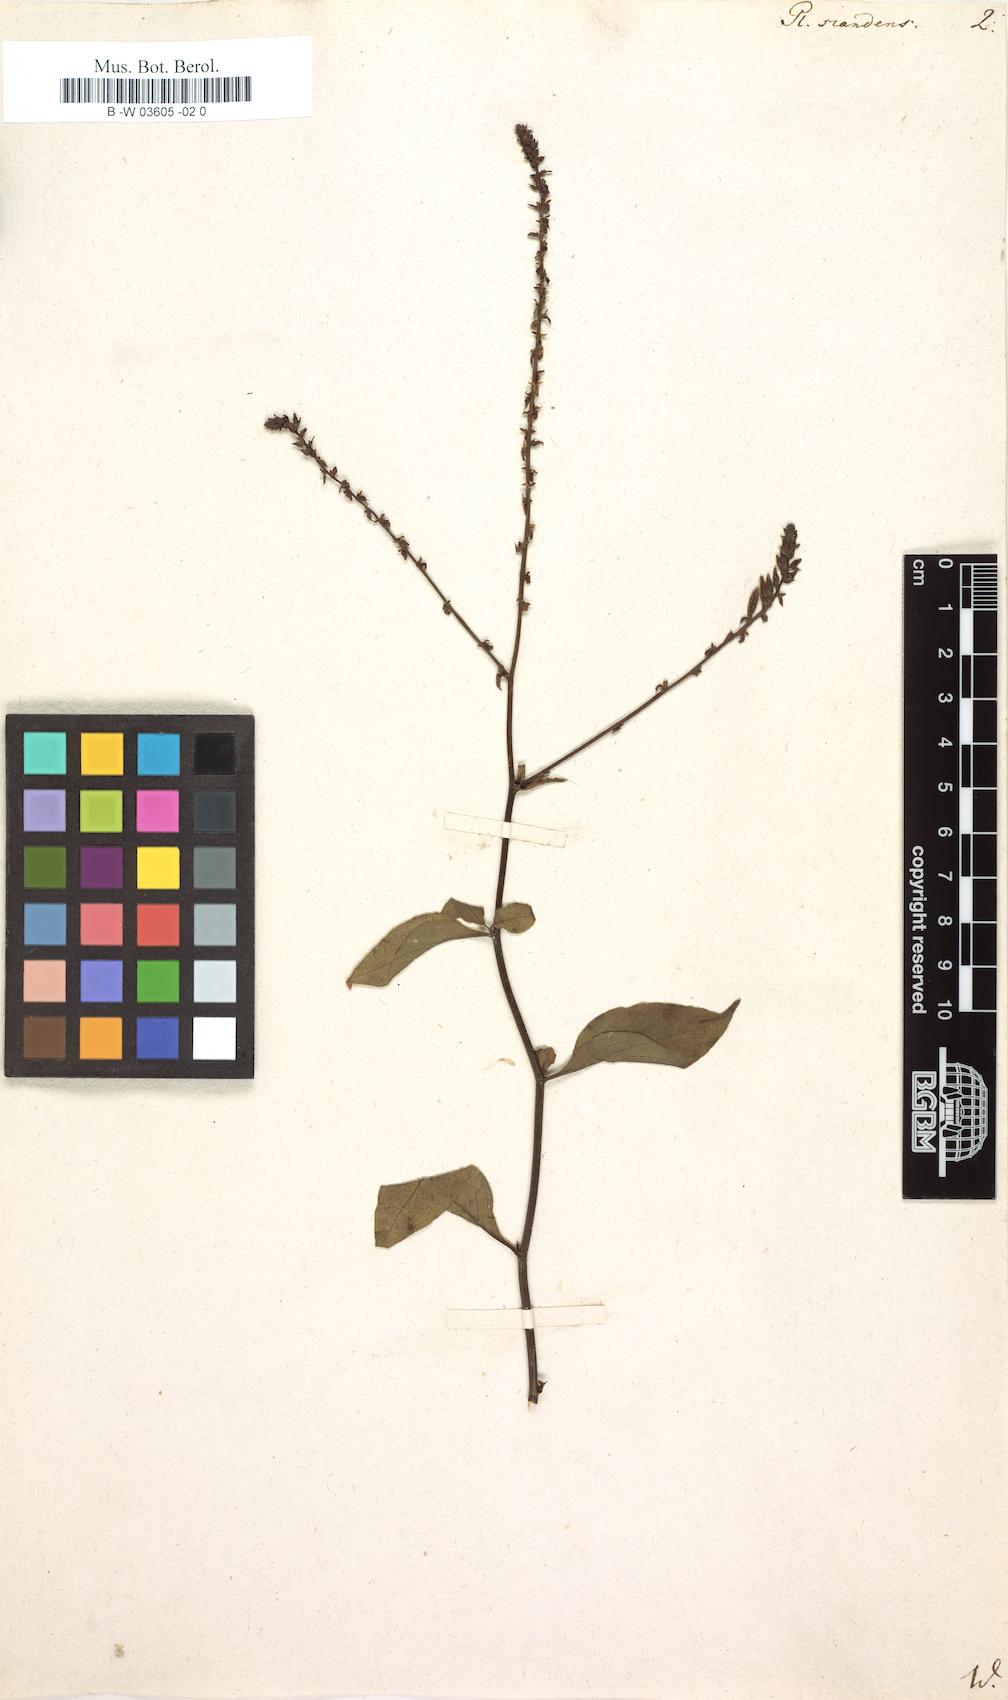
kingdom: Plantae
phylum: Tracheophyta
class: Magnoliopsida
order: Caryophyllales
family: Plumbaginaceae
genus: Plumbago
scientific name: Plumbago zeylanica
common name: Doctorbush
